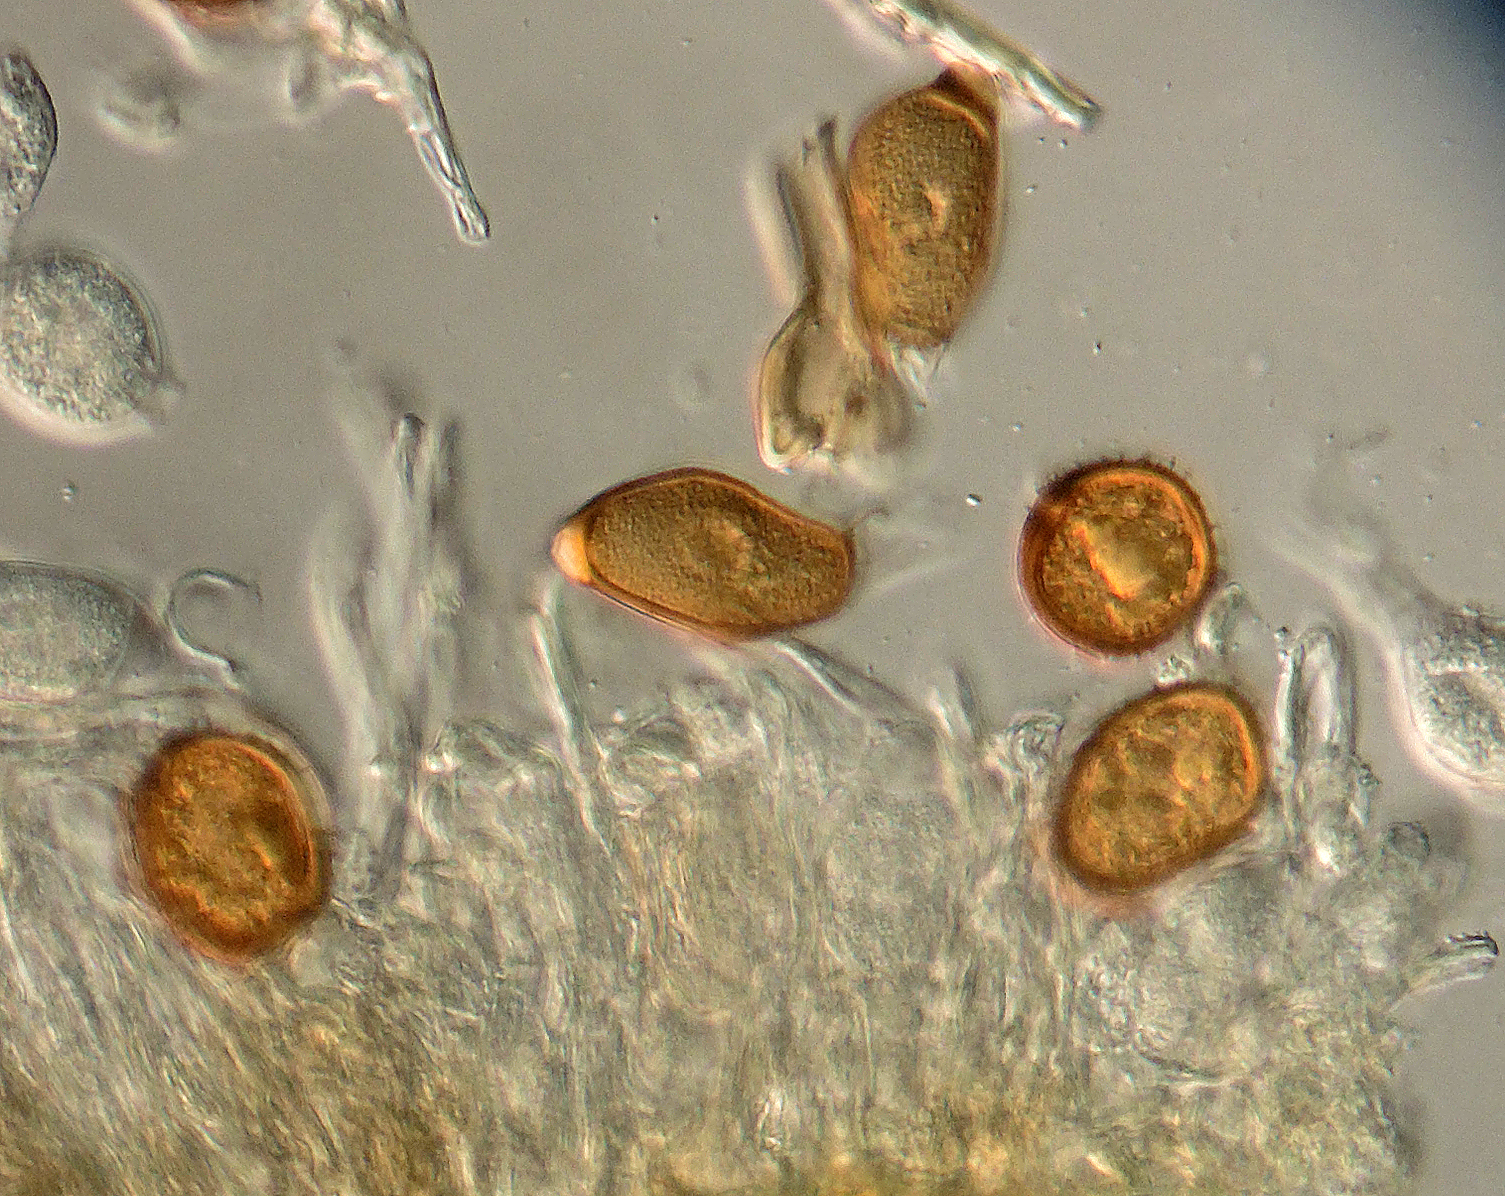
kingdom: Fungi
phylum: Basidiomycota
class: Pucciniomycetes
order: Pucciniales
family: Pucciniaceae
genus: Uromyces
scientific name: Uromyces geranii
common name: Geranium rust
